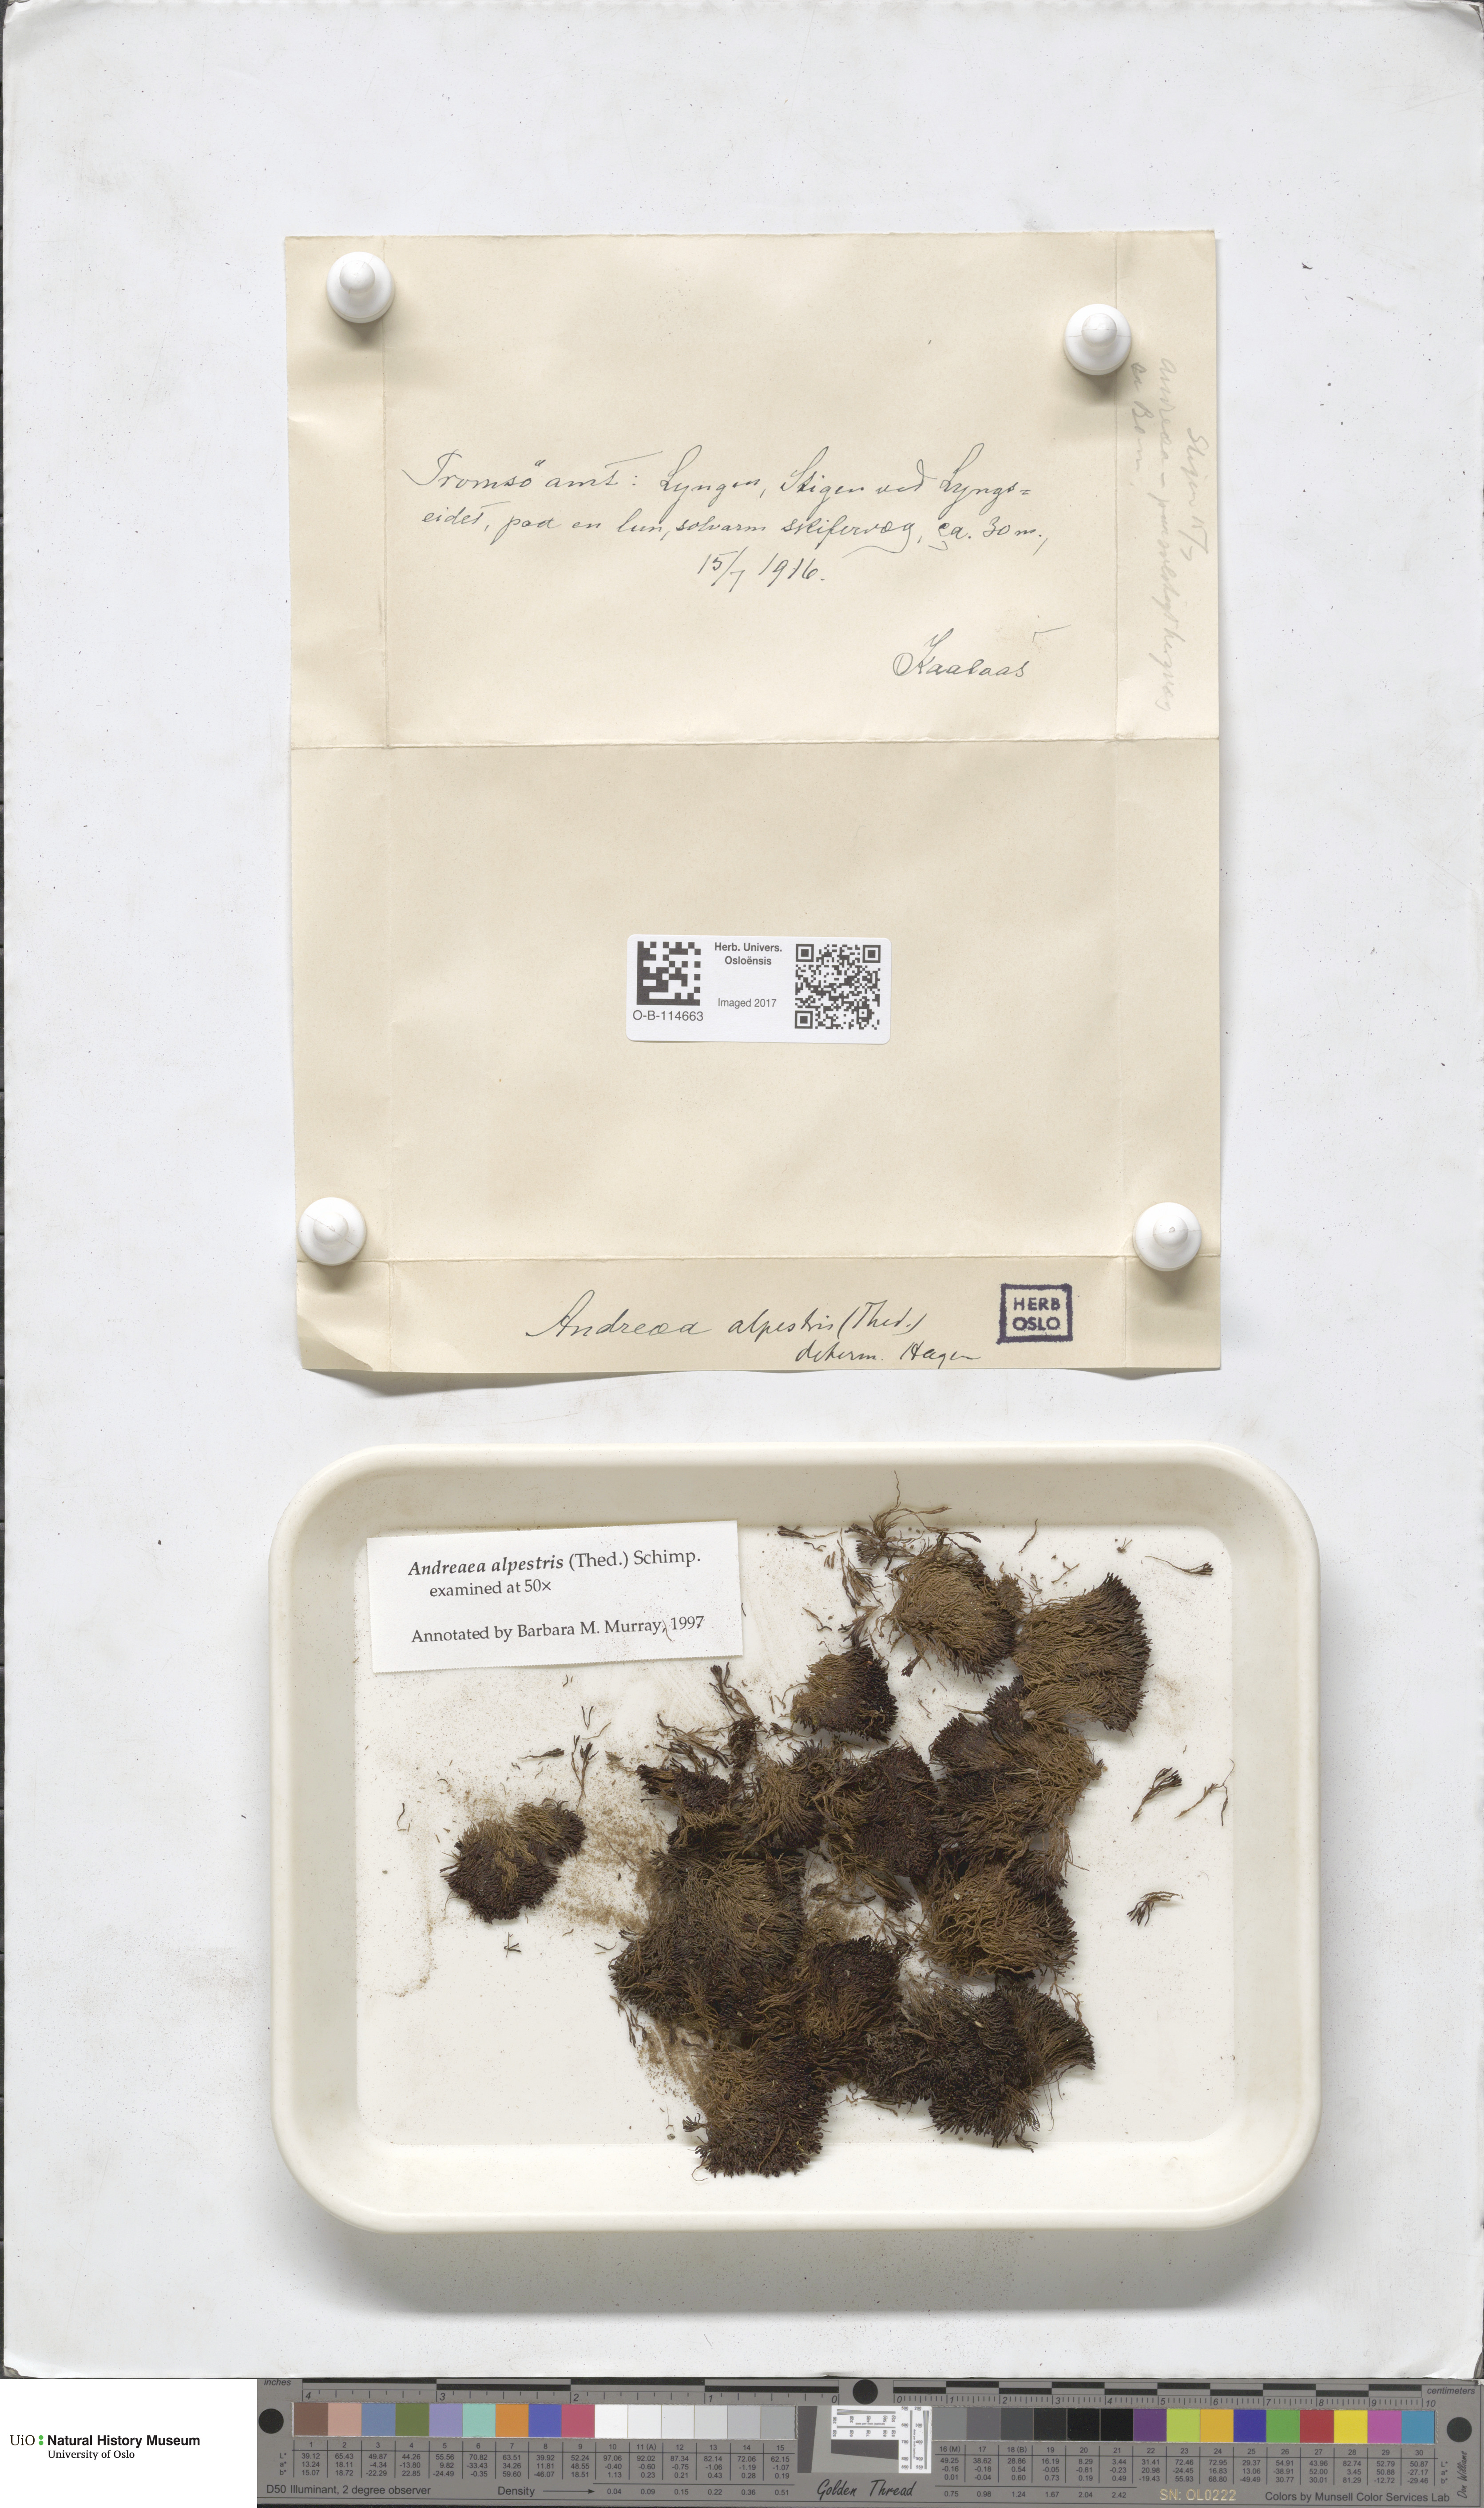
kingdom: Plantae
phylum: Bryophyta
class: Andreaeopsida
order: Andreaeales
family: Andreaeaceae
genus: Andreaea
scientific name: Andreaea alpestris
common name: Slender rock-moss
